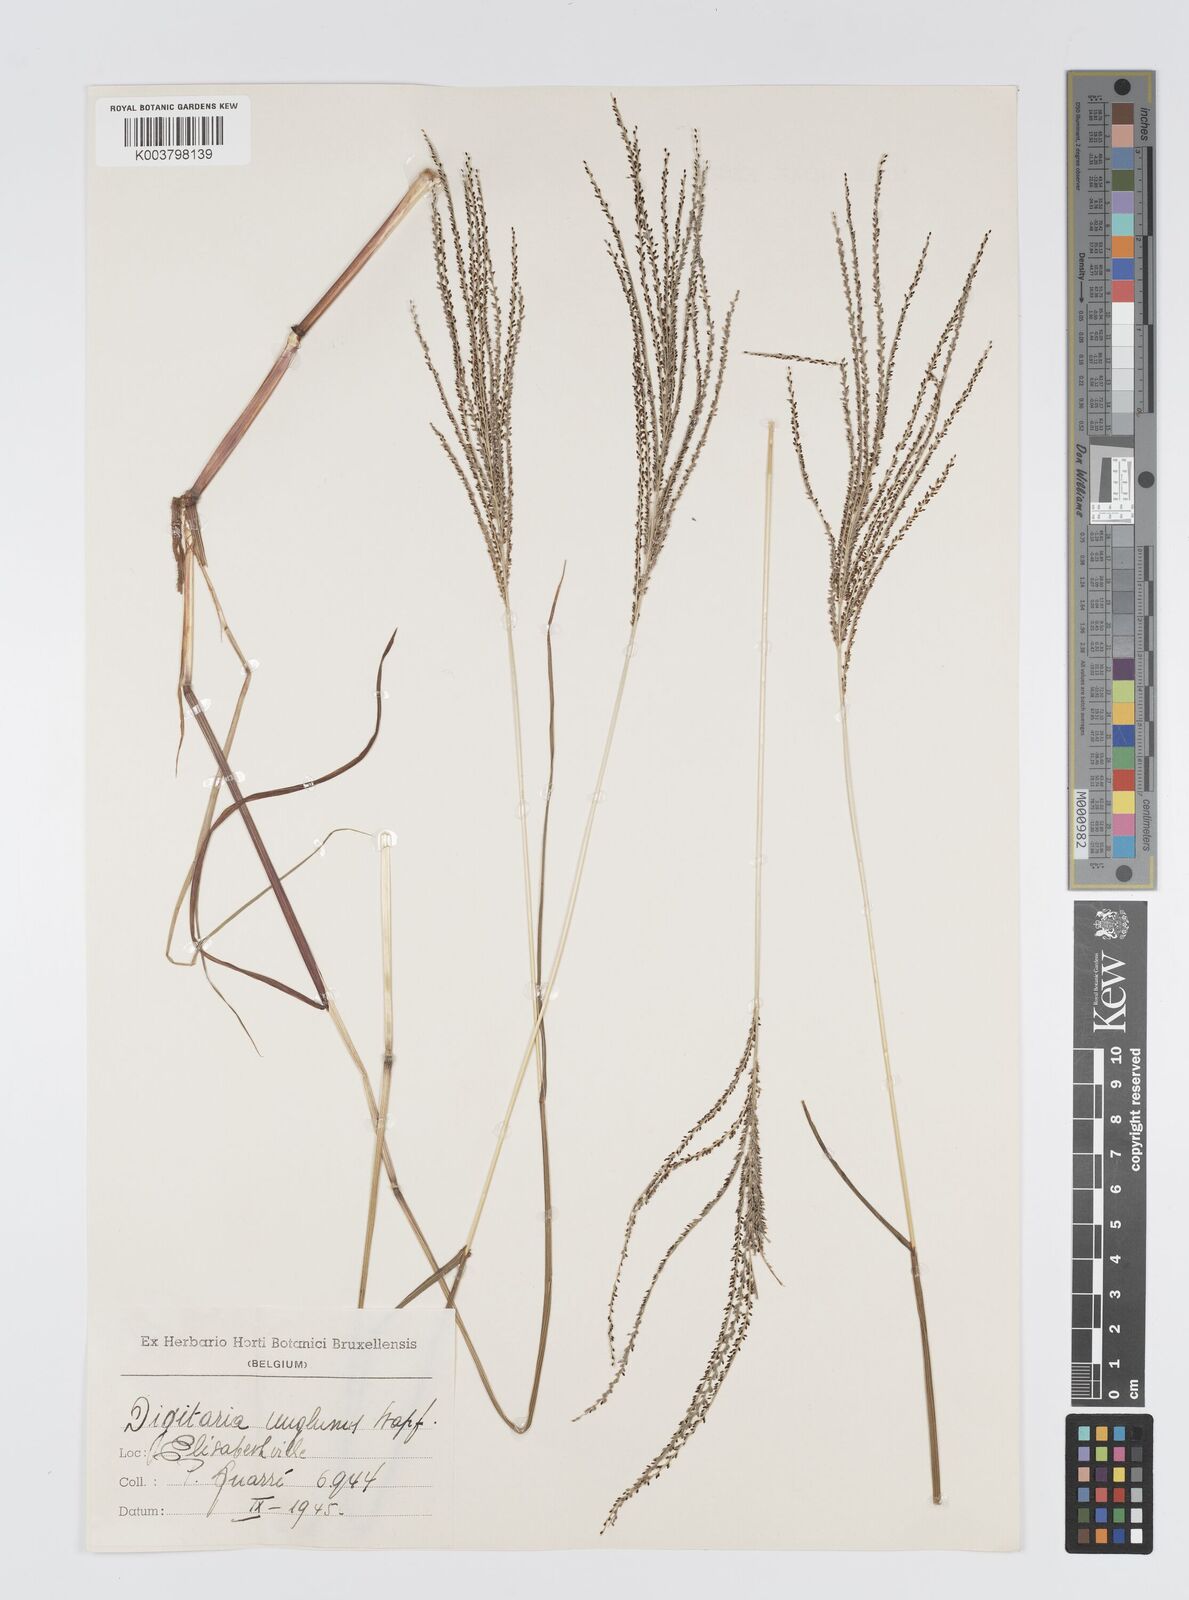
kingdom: Plantae
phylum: Tracheophyta
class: Liliopsida
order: Poales
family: Poaceae
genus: Digitaria
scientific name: Digitaria pseudodiagonalis
